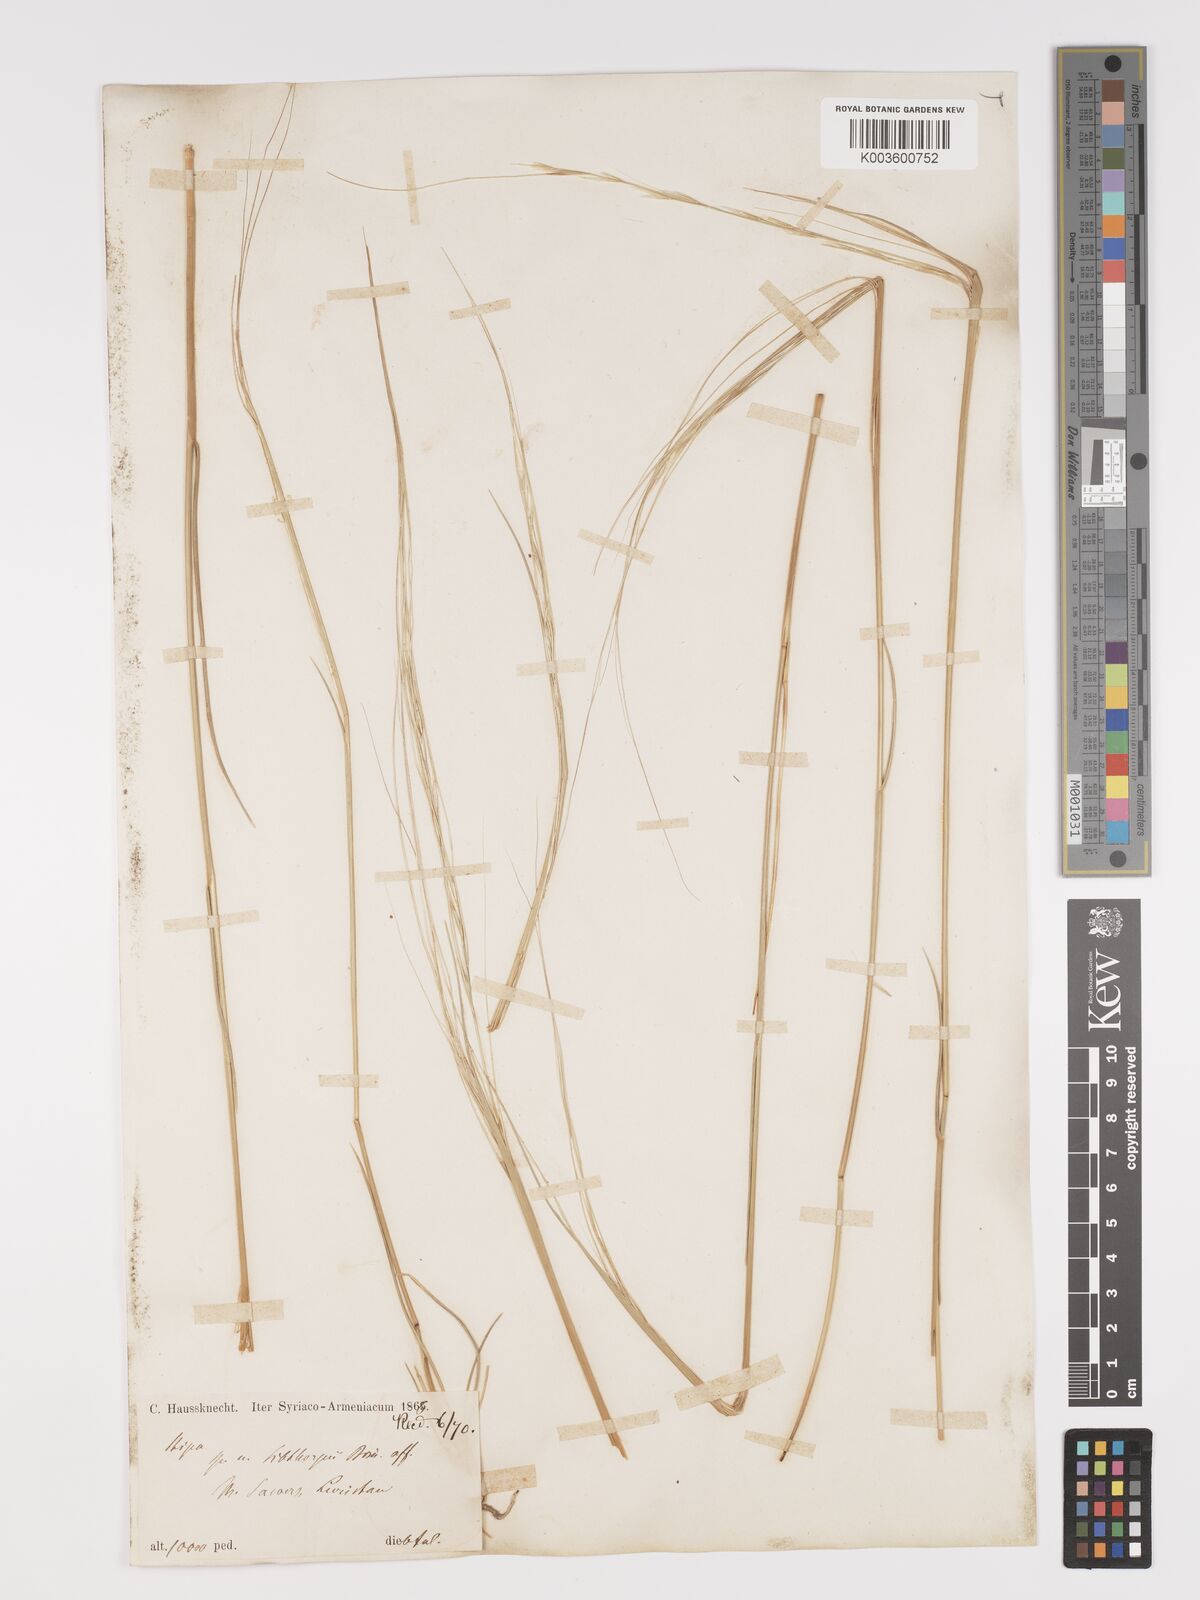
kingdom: Plantae
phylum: Tracheophyta
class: Liliopsida
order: Poales
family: Poaceae
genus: Stipa
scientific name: Stipa lagascae
